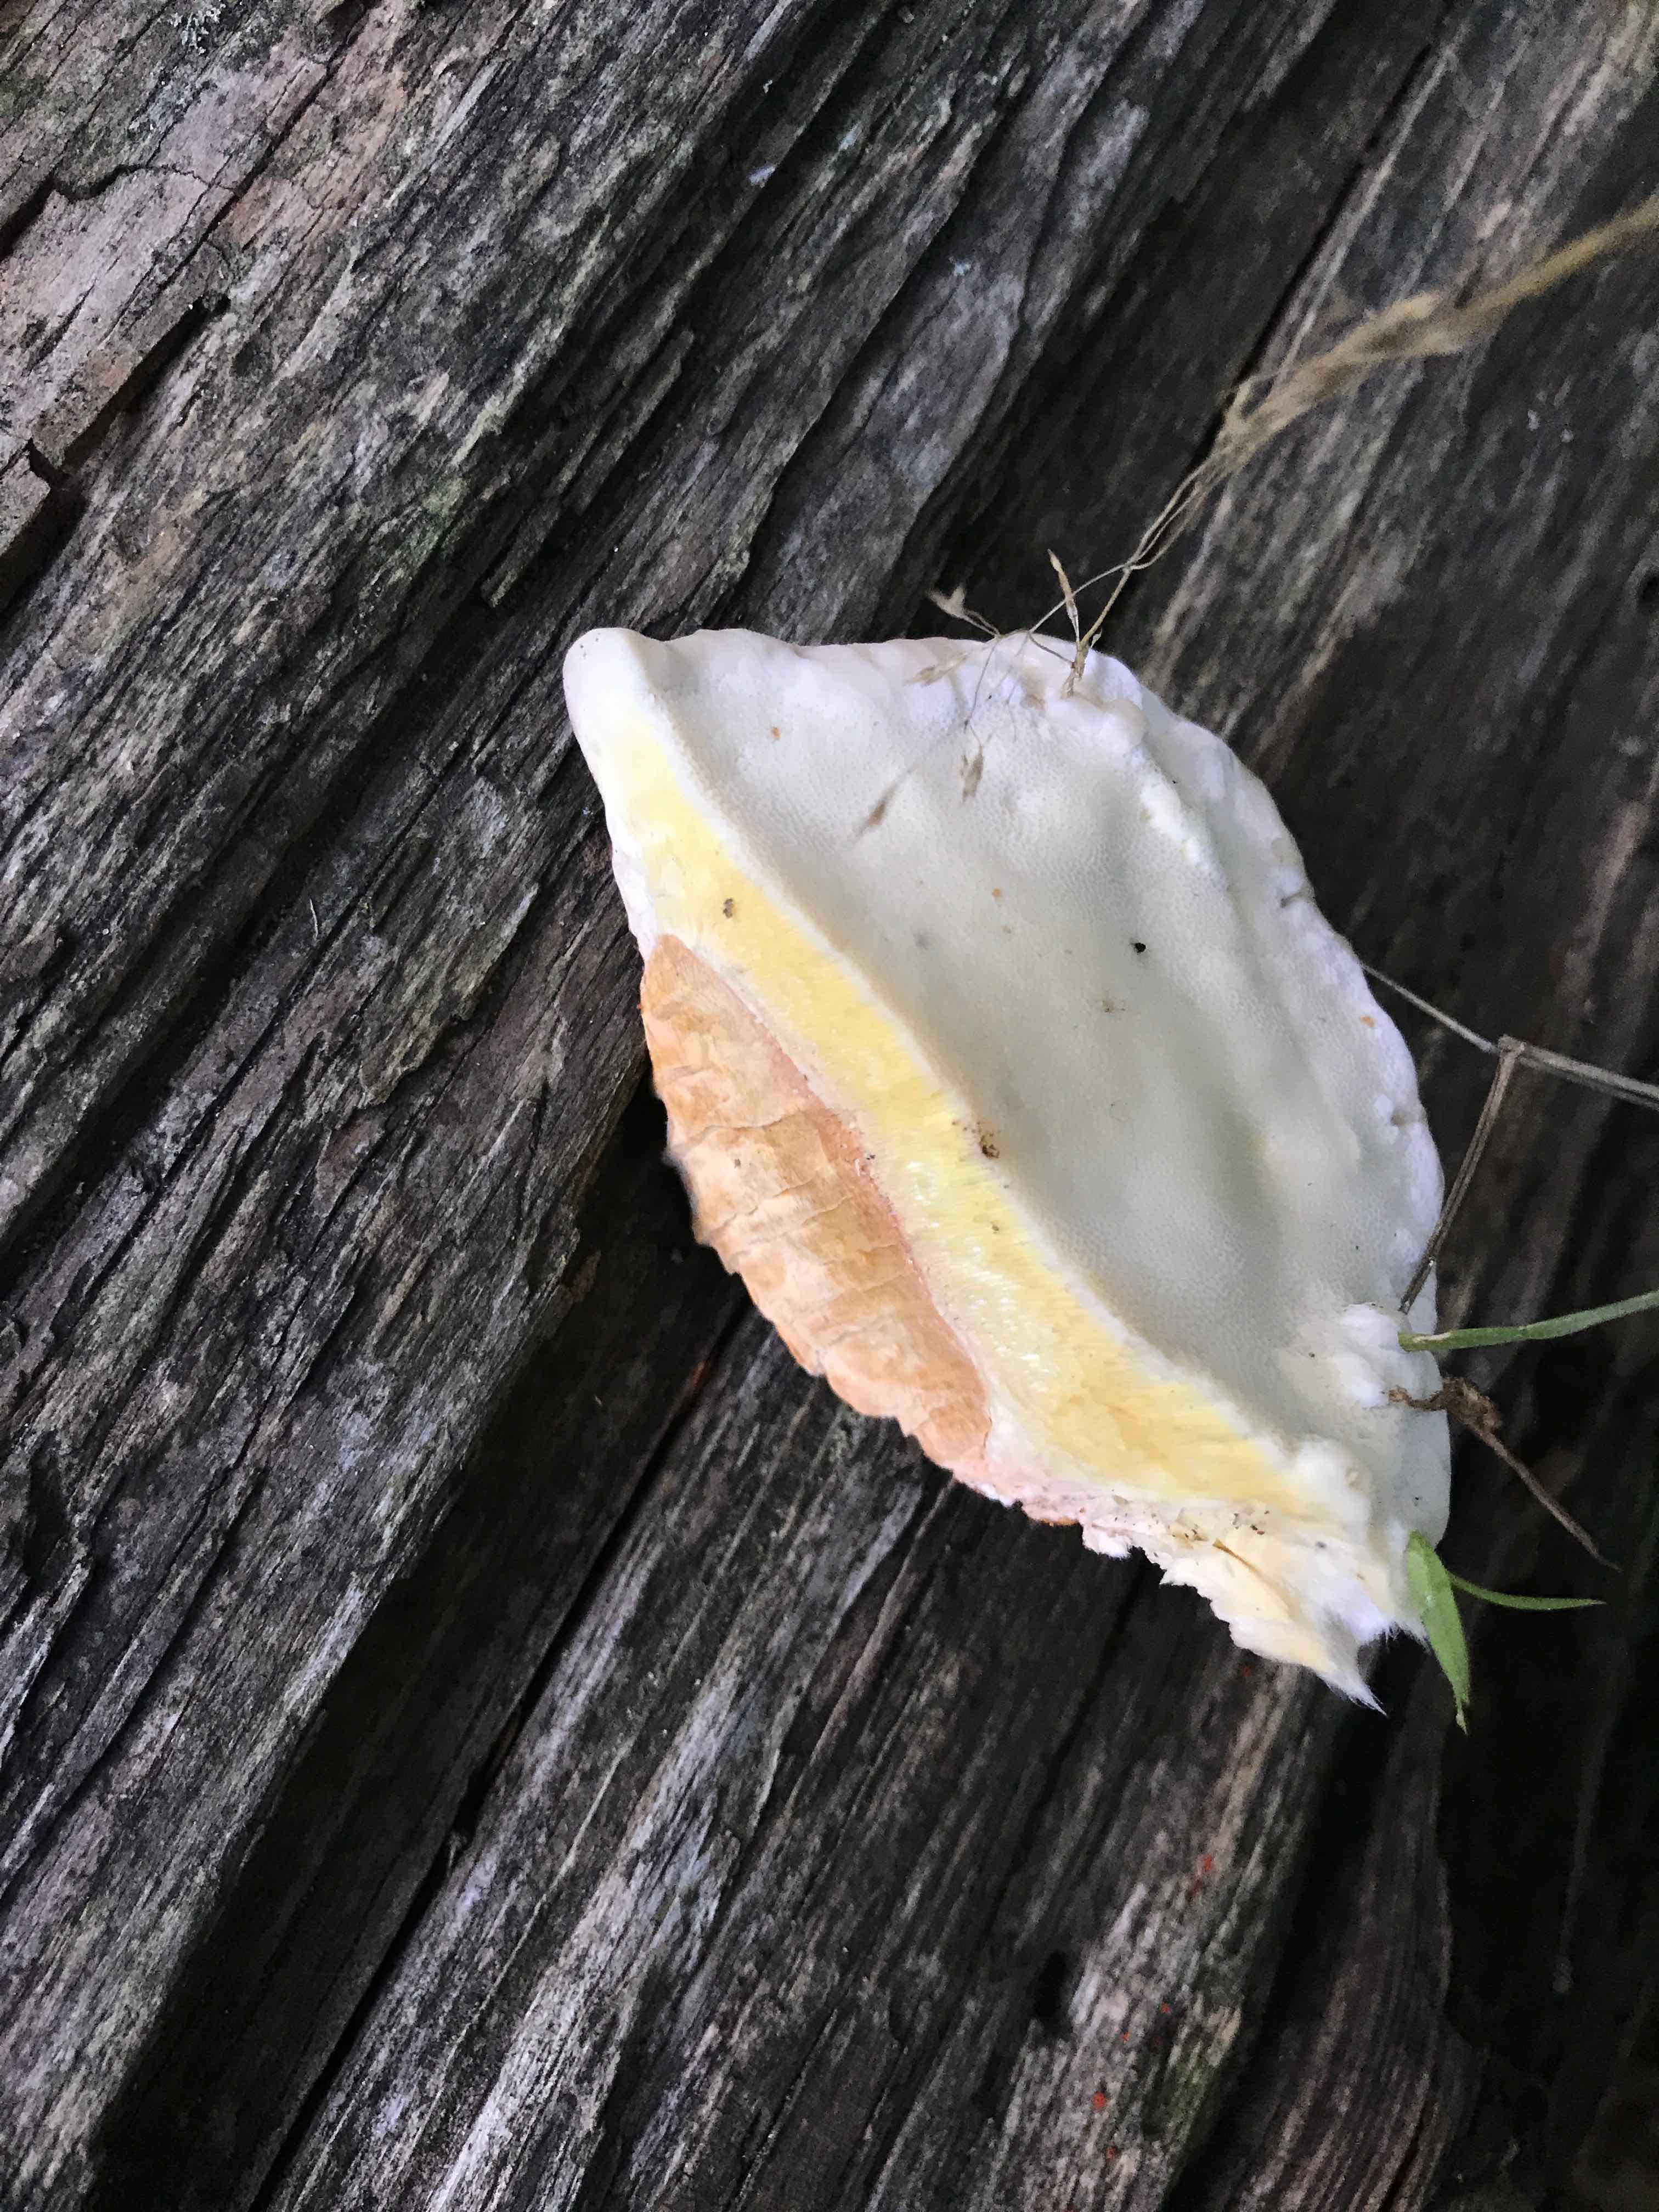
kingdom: Fungi
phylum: Basidiomycota
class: Agaricomycetes
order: Polyporales
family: Fomitopsidaceae
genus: Fomitopsis
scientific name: Fomitopsis pinicola
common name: randbæltet hovporesvamp
